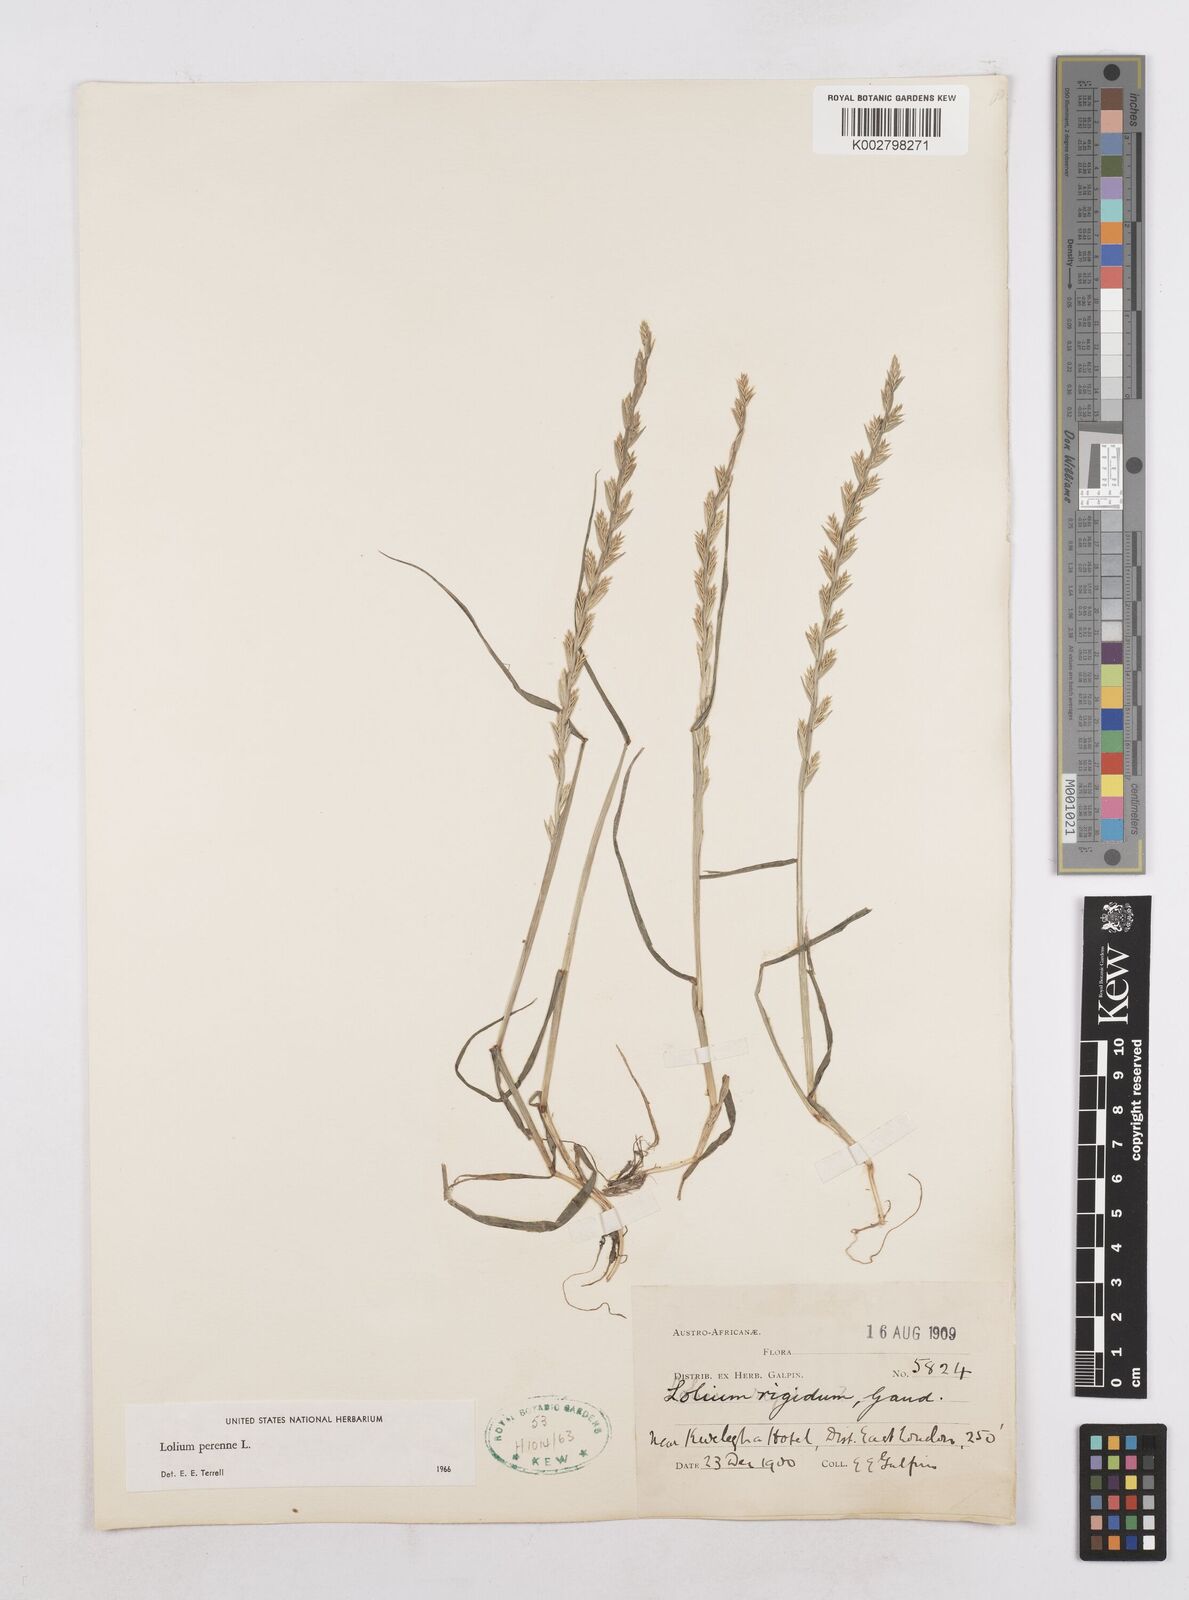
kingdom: Plantae
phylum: Tracheophyta
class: Liliopsida
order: Poales
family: Poaceae
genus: Lolium
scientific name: Lolium perenne
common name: Perennial ryegrass
